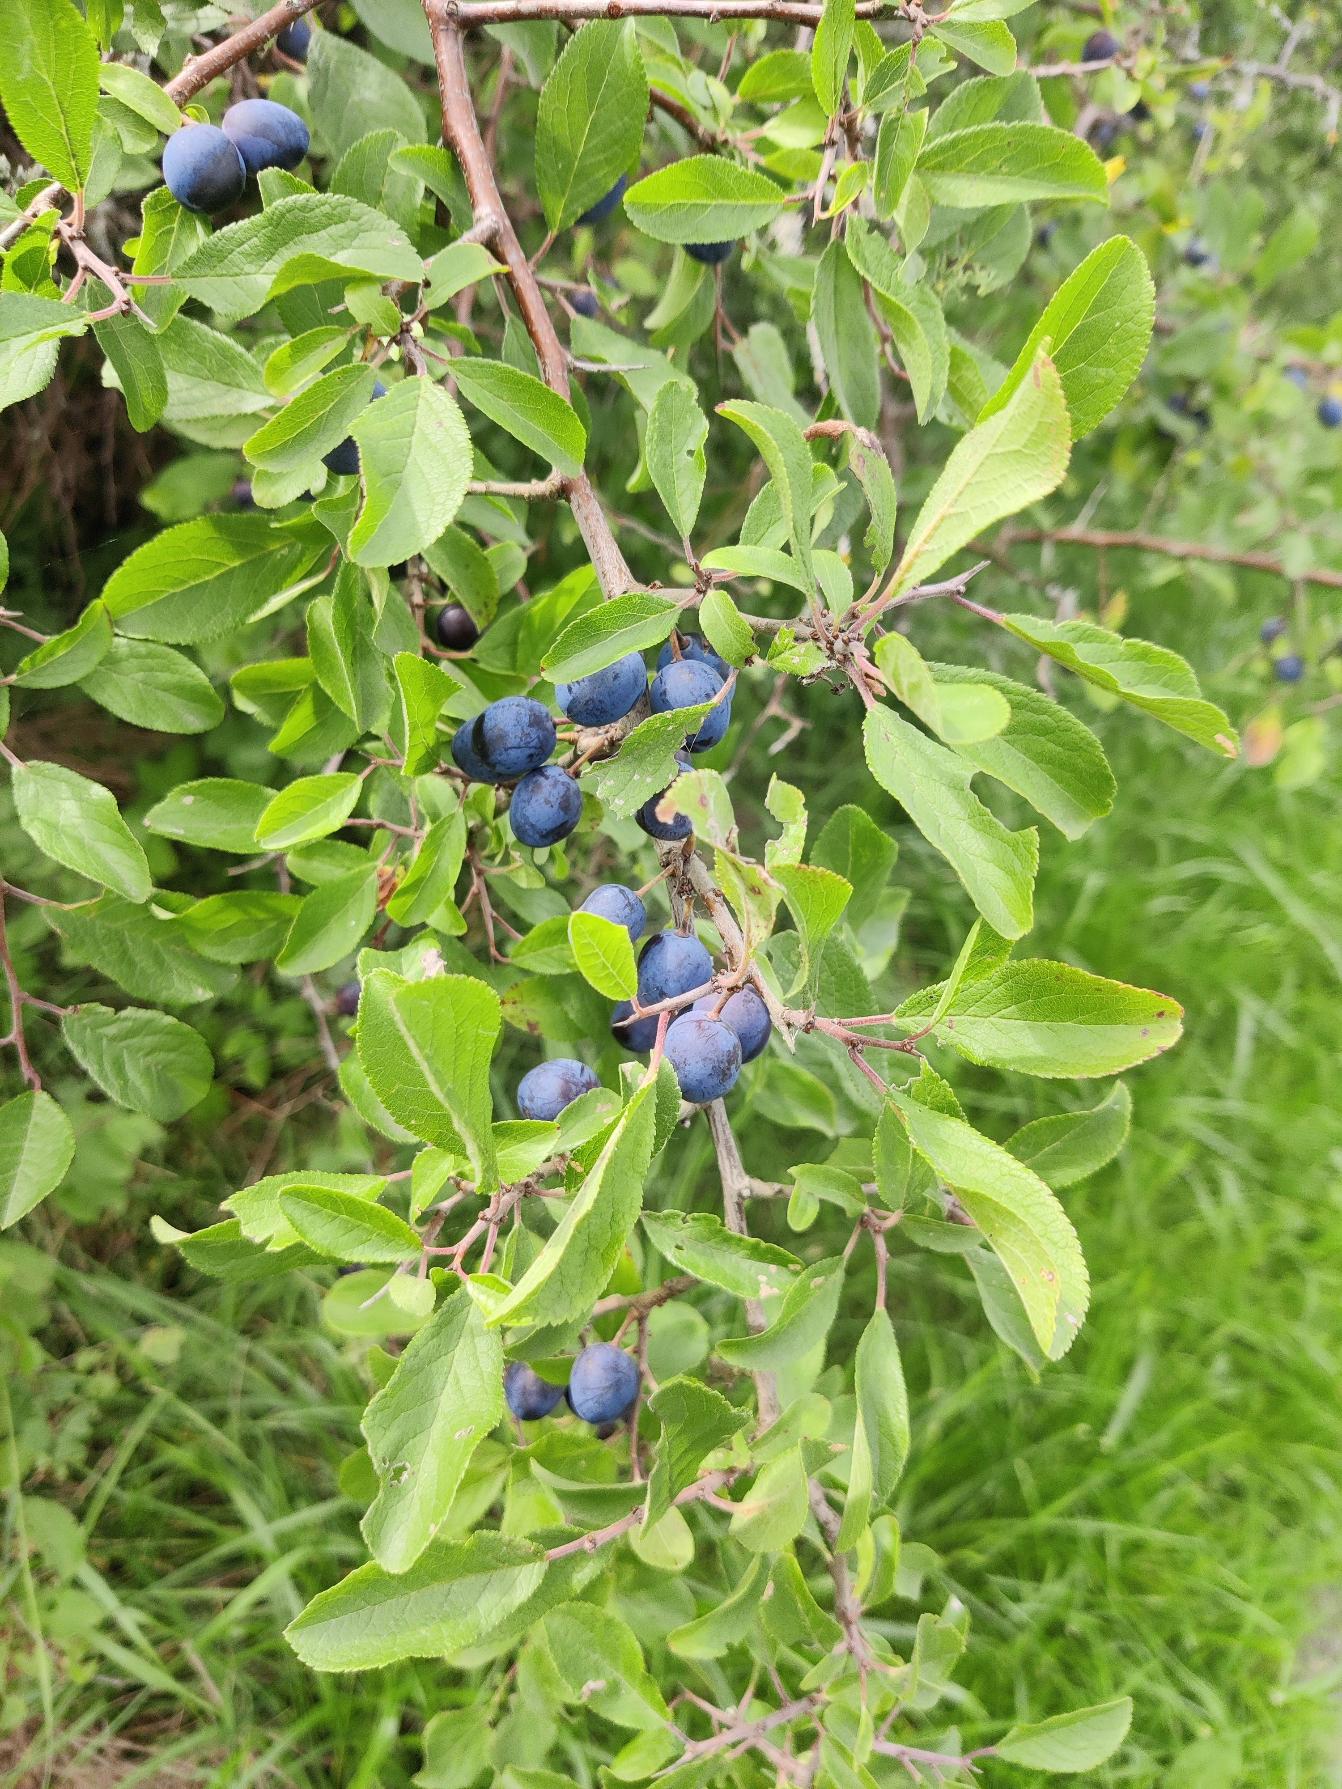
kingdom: Plantae
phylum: Tracheophyta
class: Magnoliopsida
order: Rosales
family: Rosaceae
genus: Prunus
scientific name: Prunus spinosa
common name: Slåen
